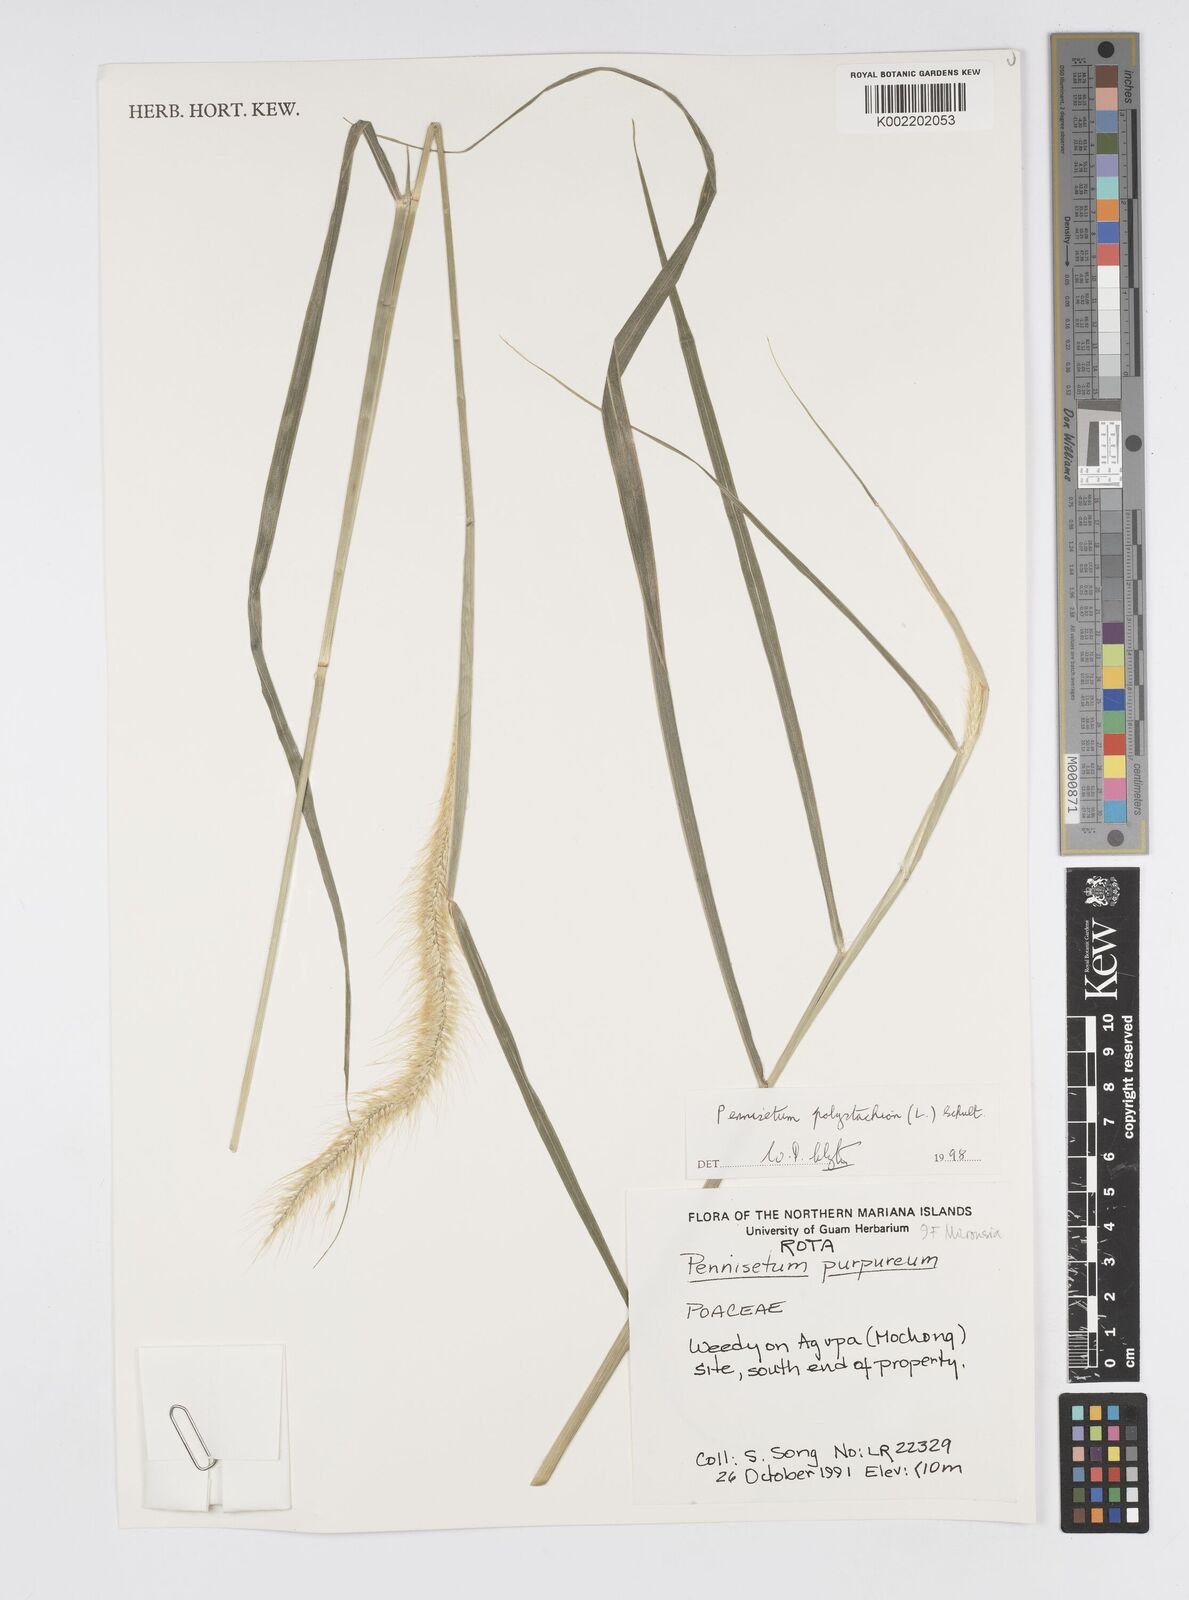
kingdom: Plantae
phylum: Tracheophyta
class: Liliopsida
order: Poales
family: Poaceae
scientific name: Poaceae
